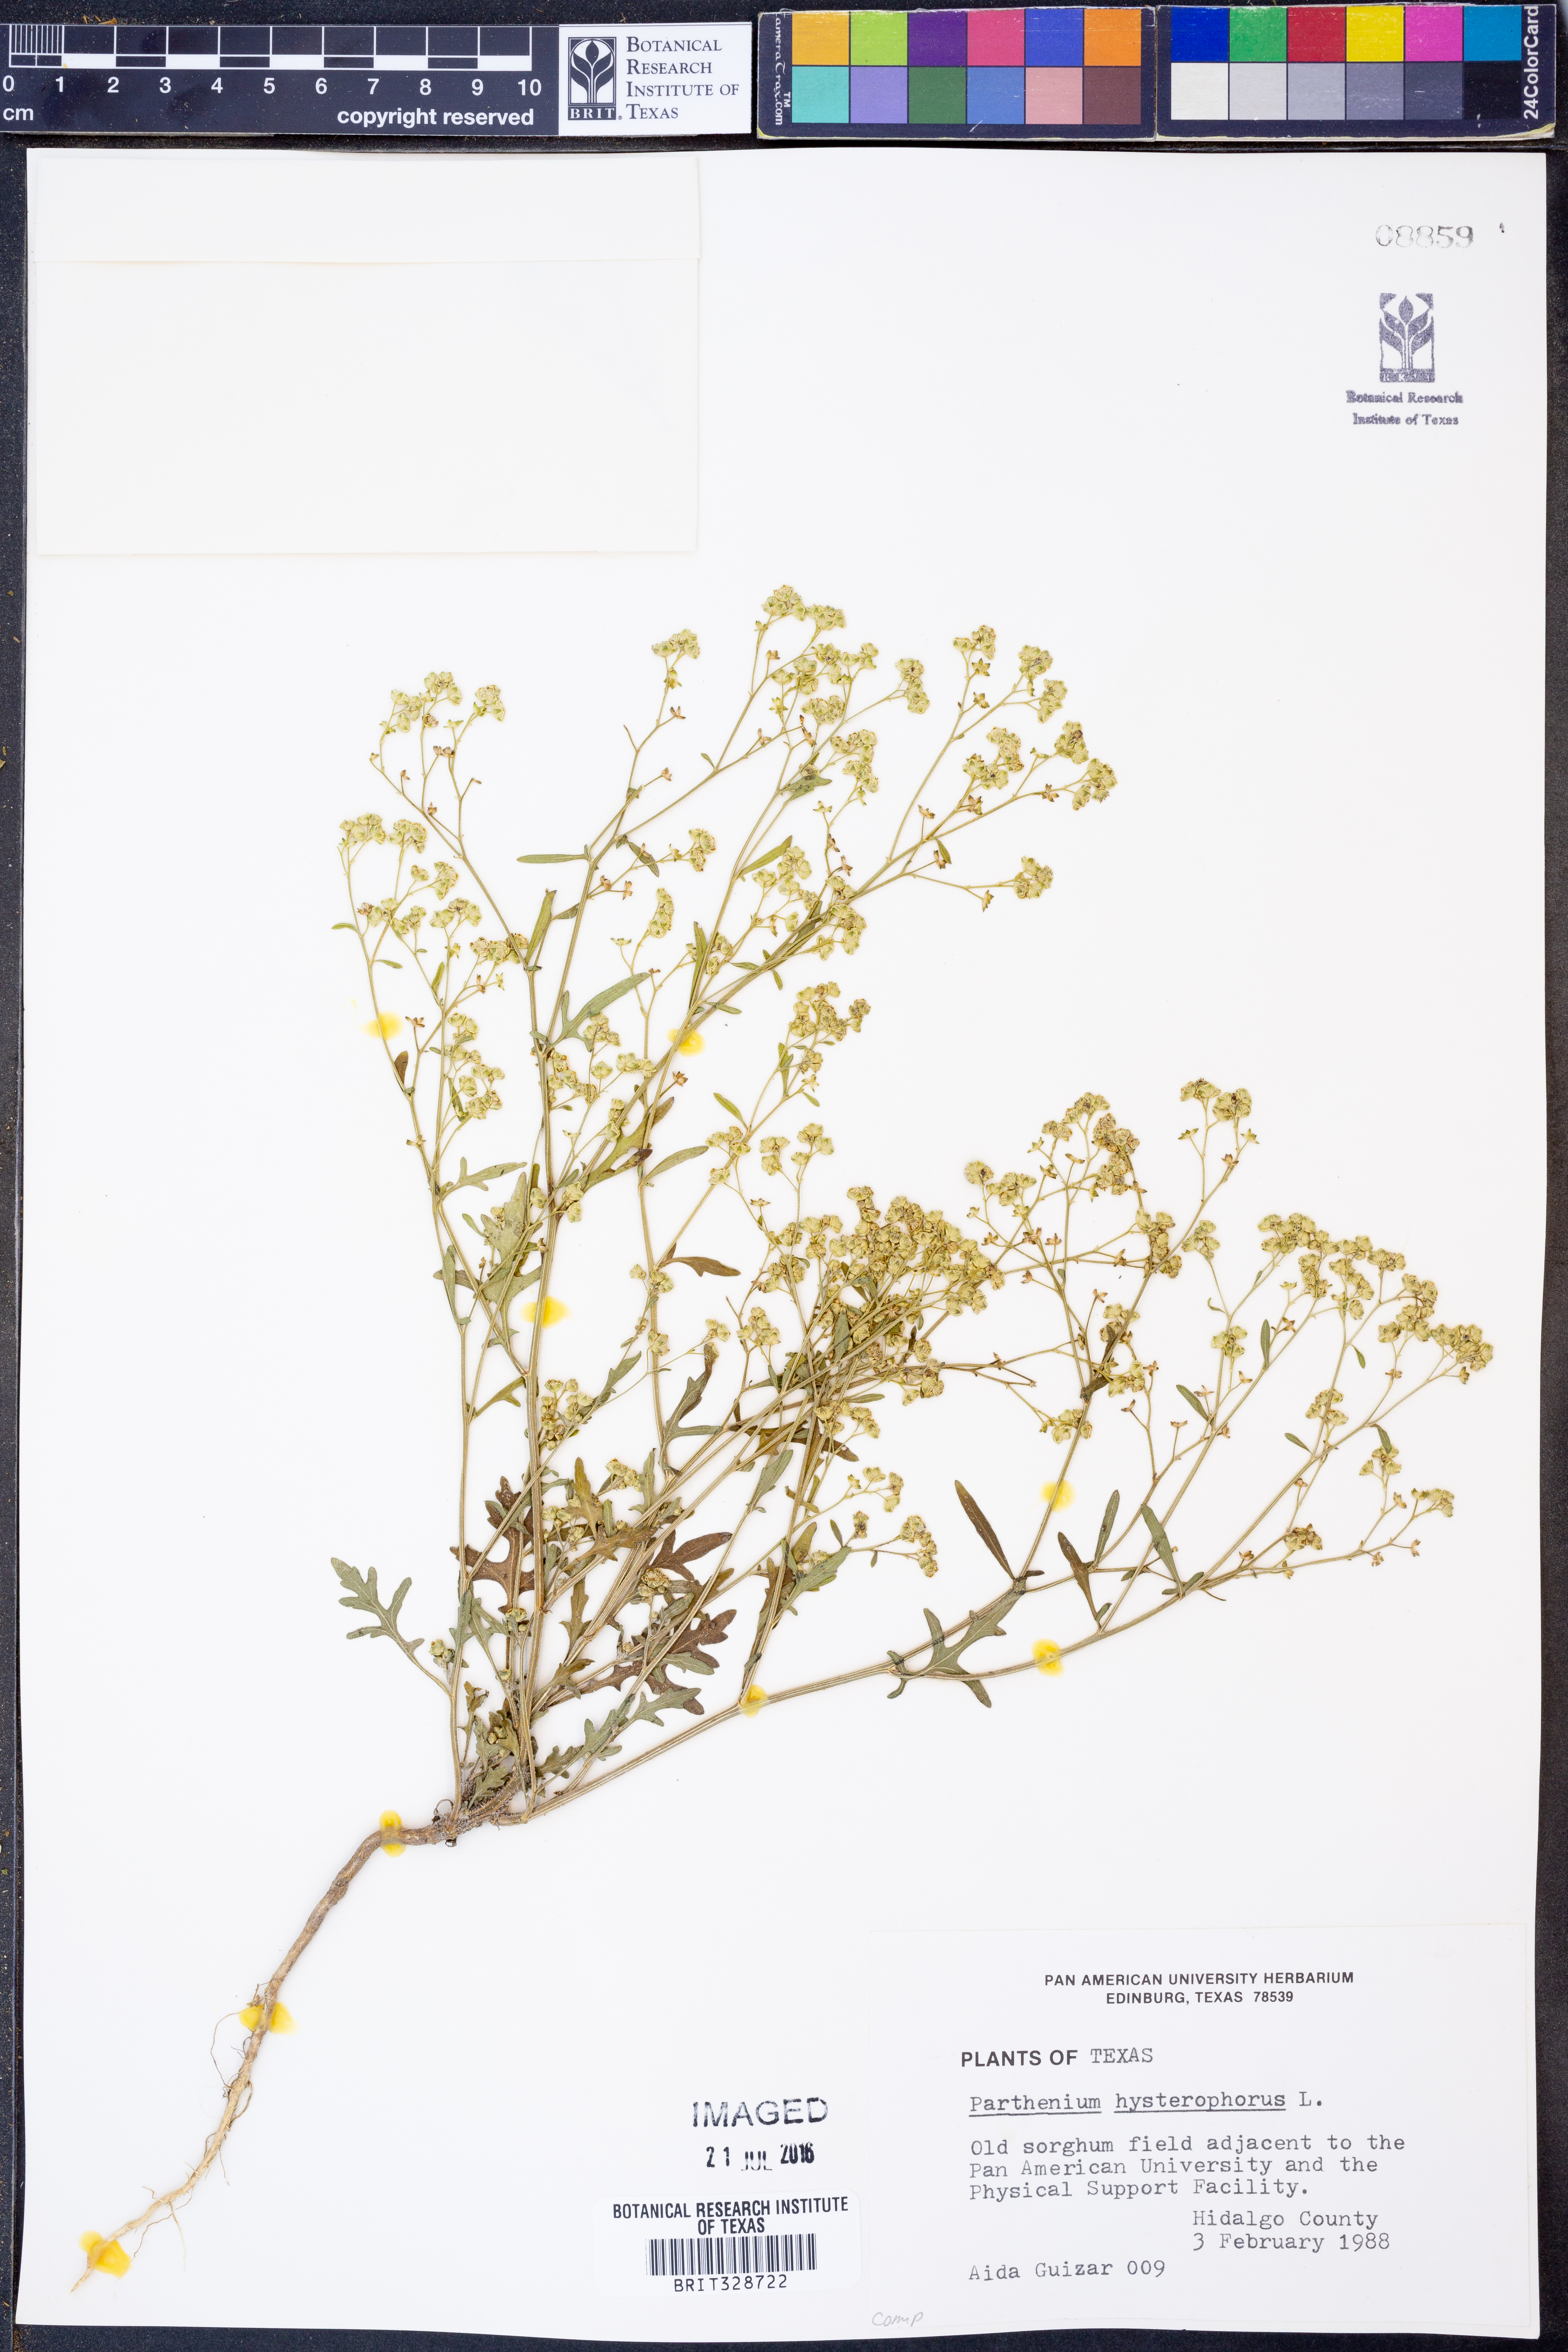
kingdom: Plantae
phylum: Tracheophyta
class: Magnoliopsida
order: Asterales
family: Asteraceae
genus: Parthenium
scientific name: Parthenium hysterophorus
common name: Santa maria feverfew
